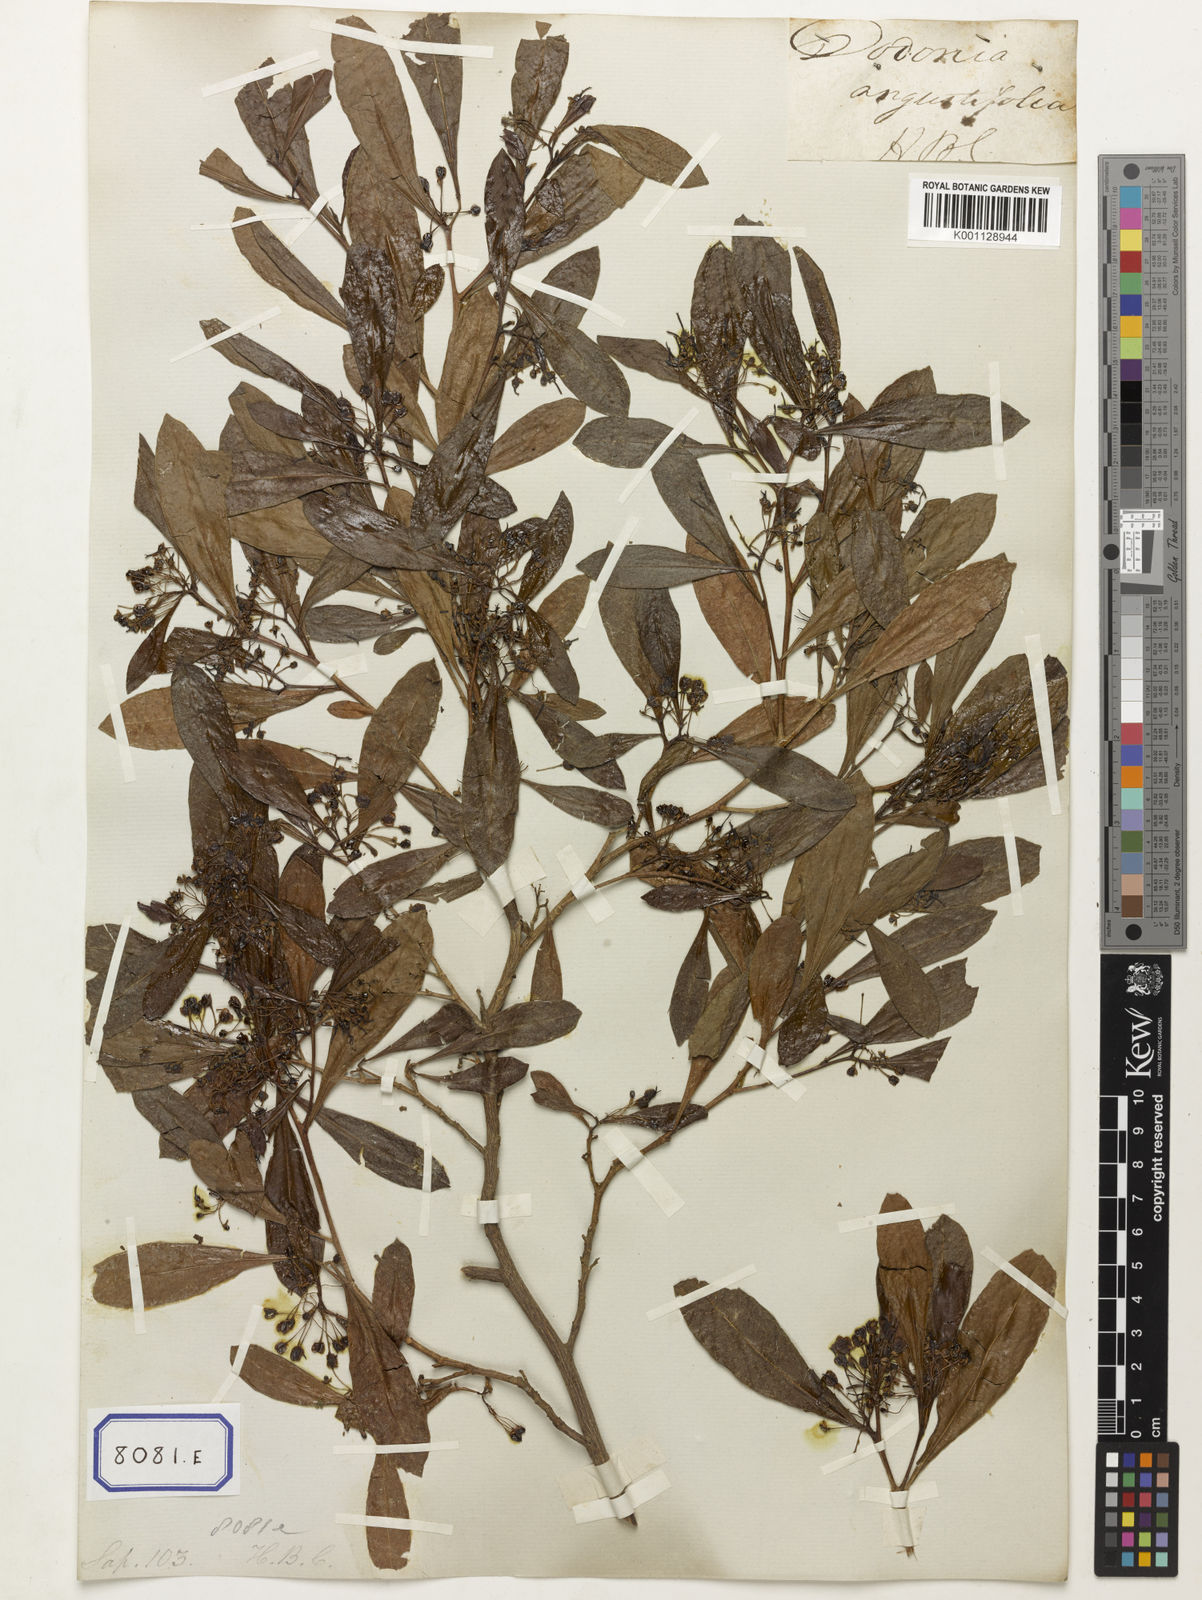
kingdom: Plantae
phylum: Tracheophyta
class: Magnoliopsida
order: Sapindales
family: Sapindaceae
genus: Dodonaea
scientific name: Dodonaea
